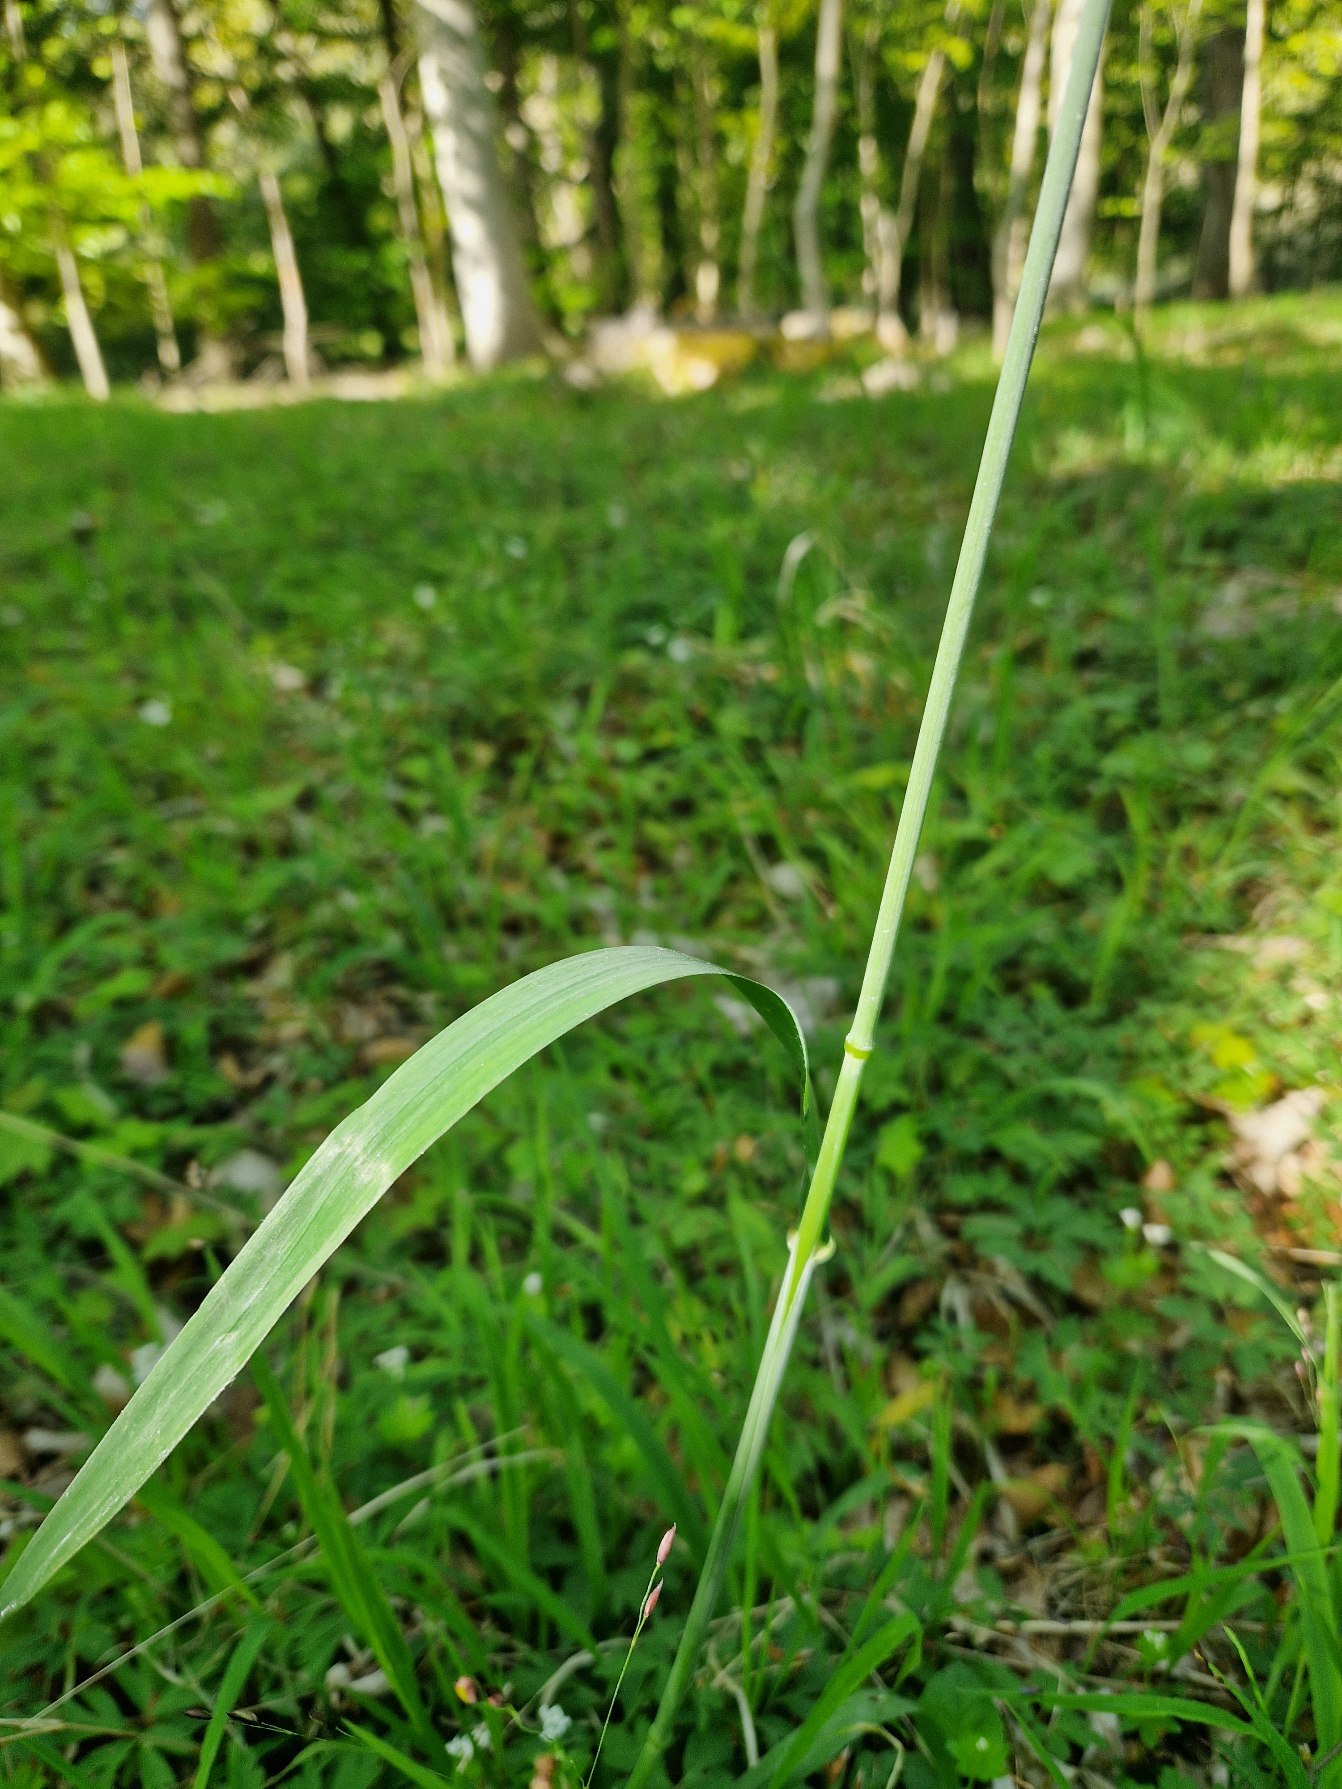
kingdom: Plantae
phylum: Tracheophyta
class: Liliopsida
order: Poales
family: Poaceae
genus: Milium
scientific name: Milium effusum
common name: Miliegræs
